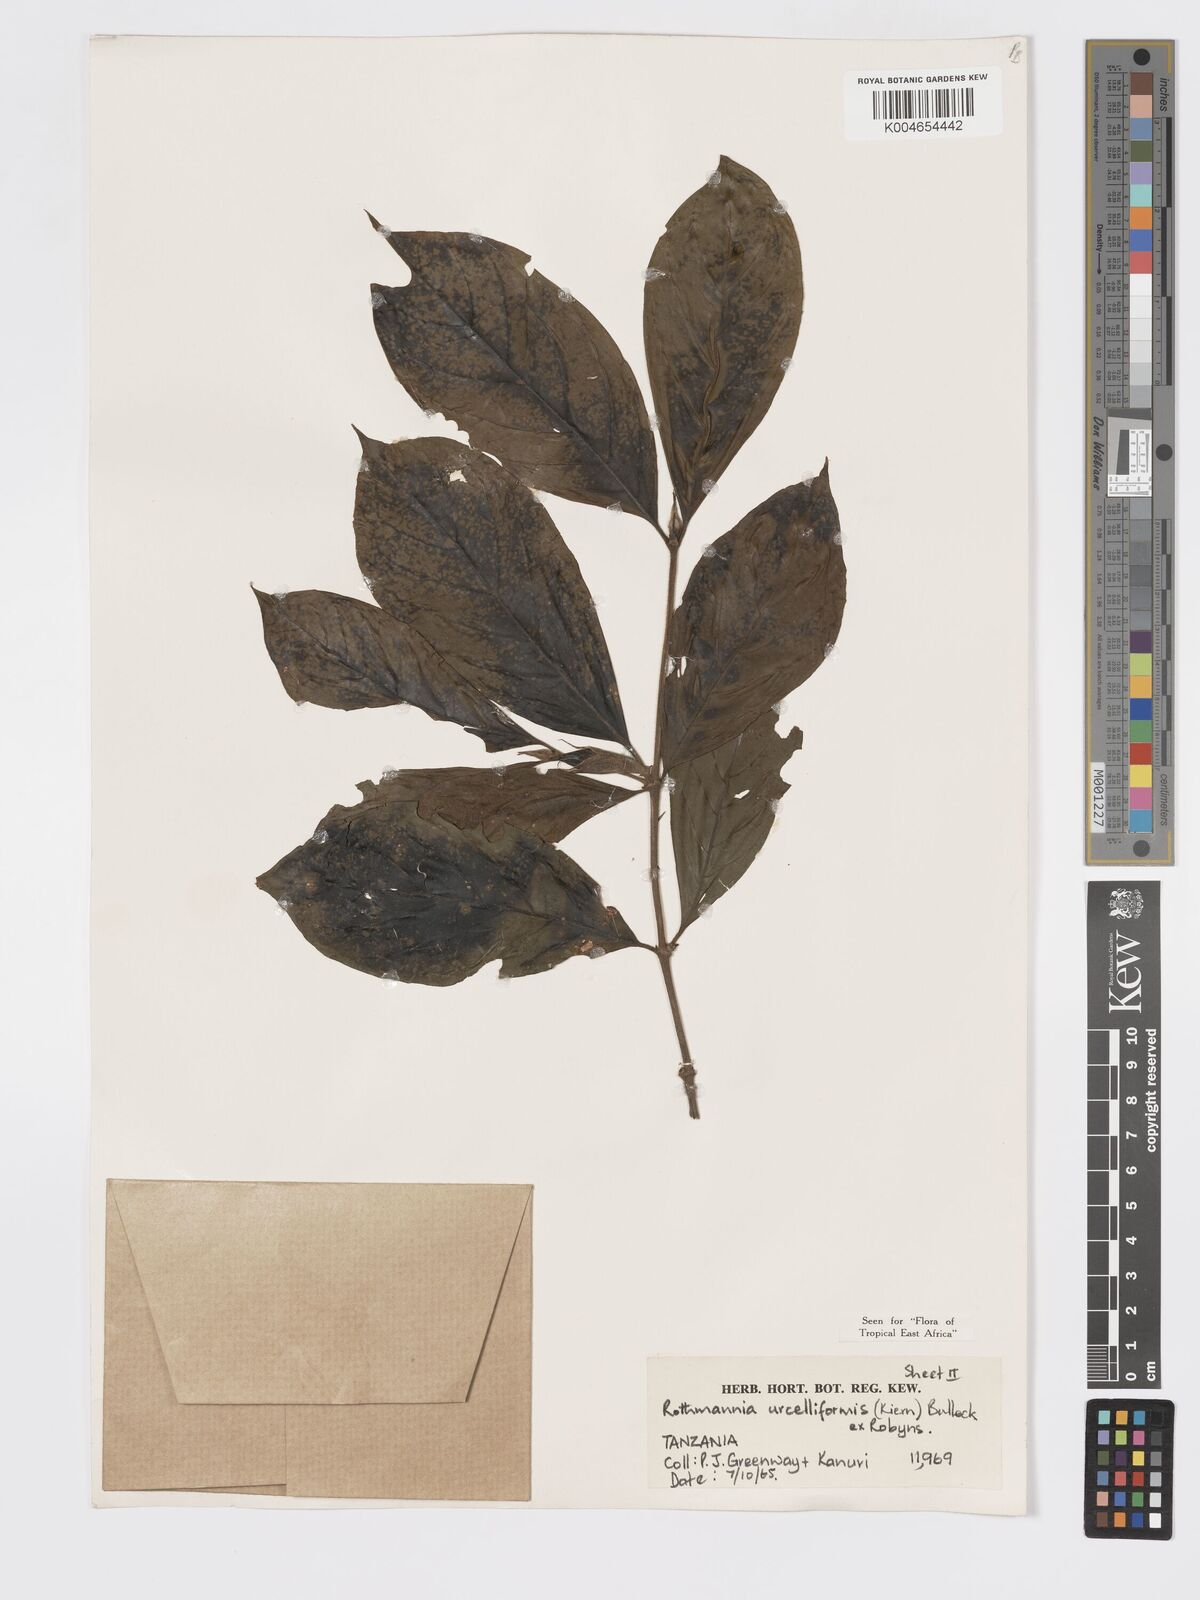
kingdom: Plantae
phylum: Tracheophyta
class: Magnoliopsida
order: Gentianales
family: Rubiaceae
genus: Rothmannia
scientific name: Rothmannia urcelliformis
